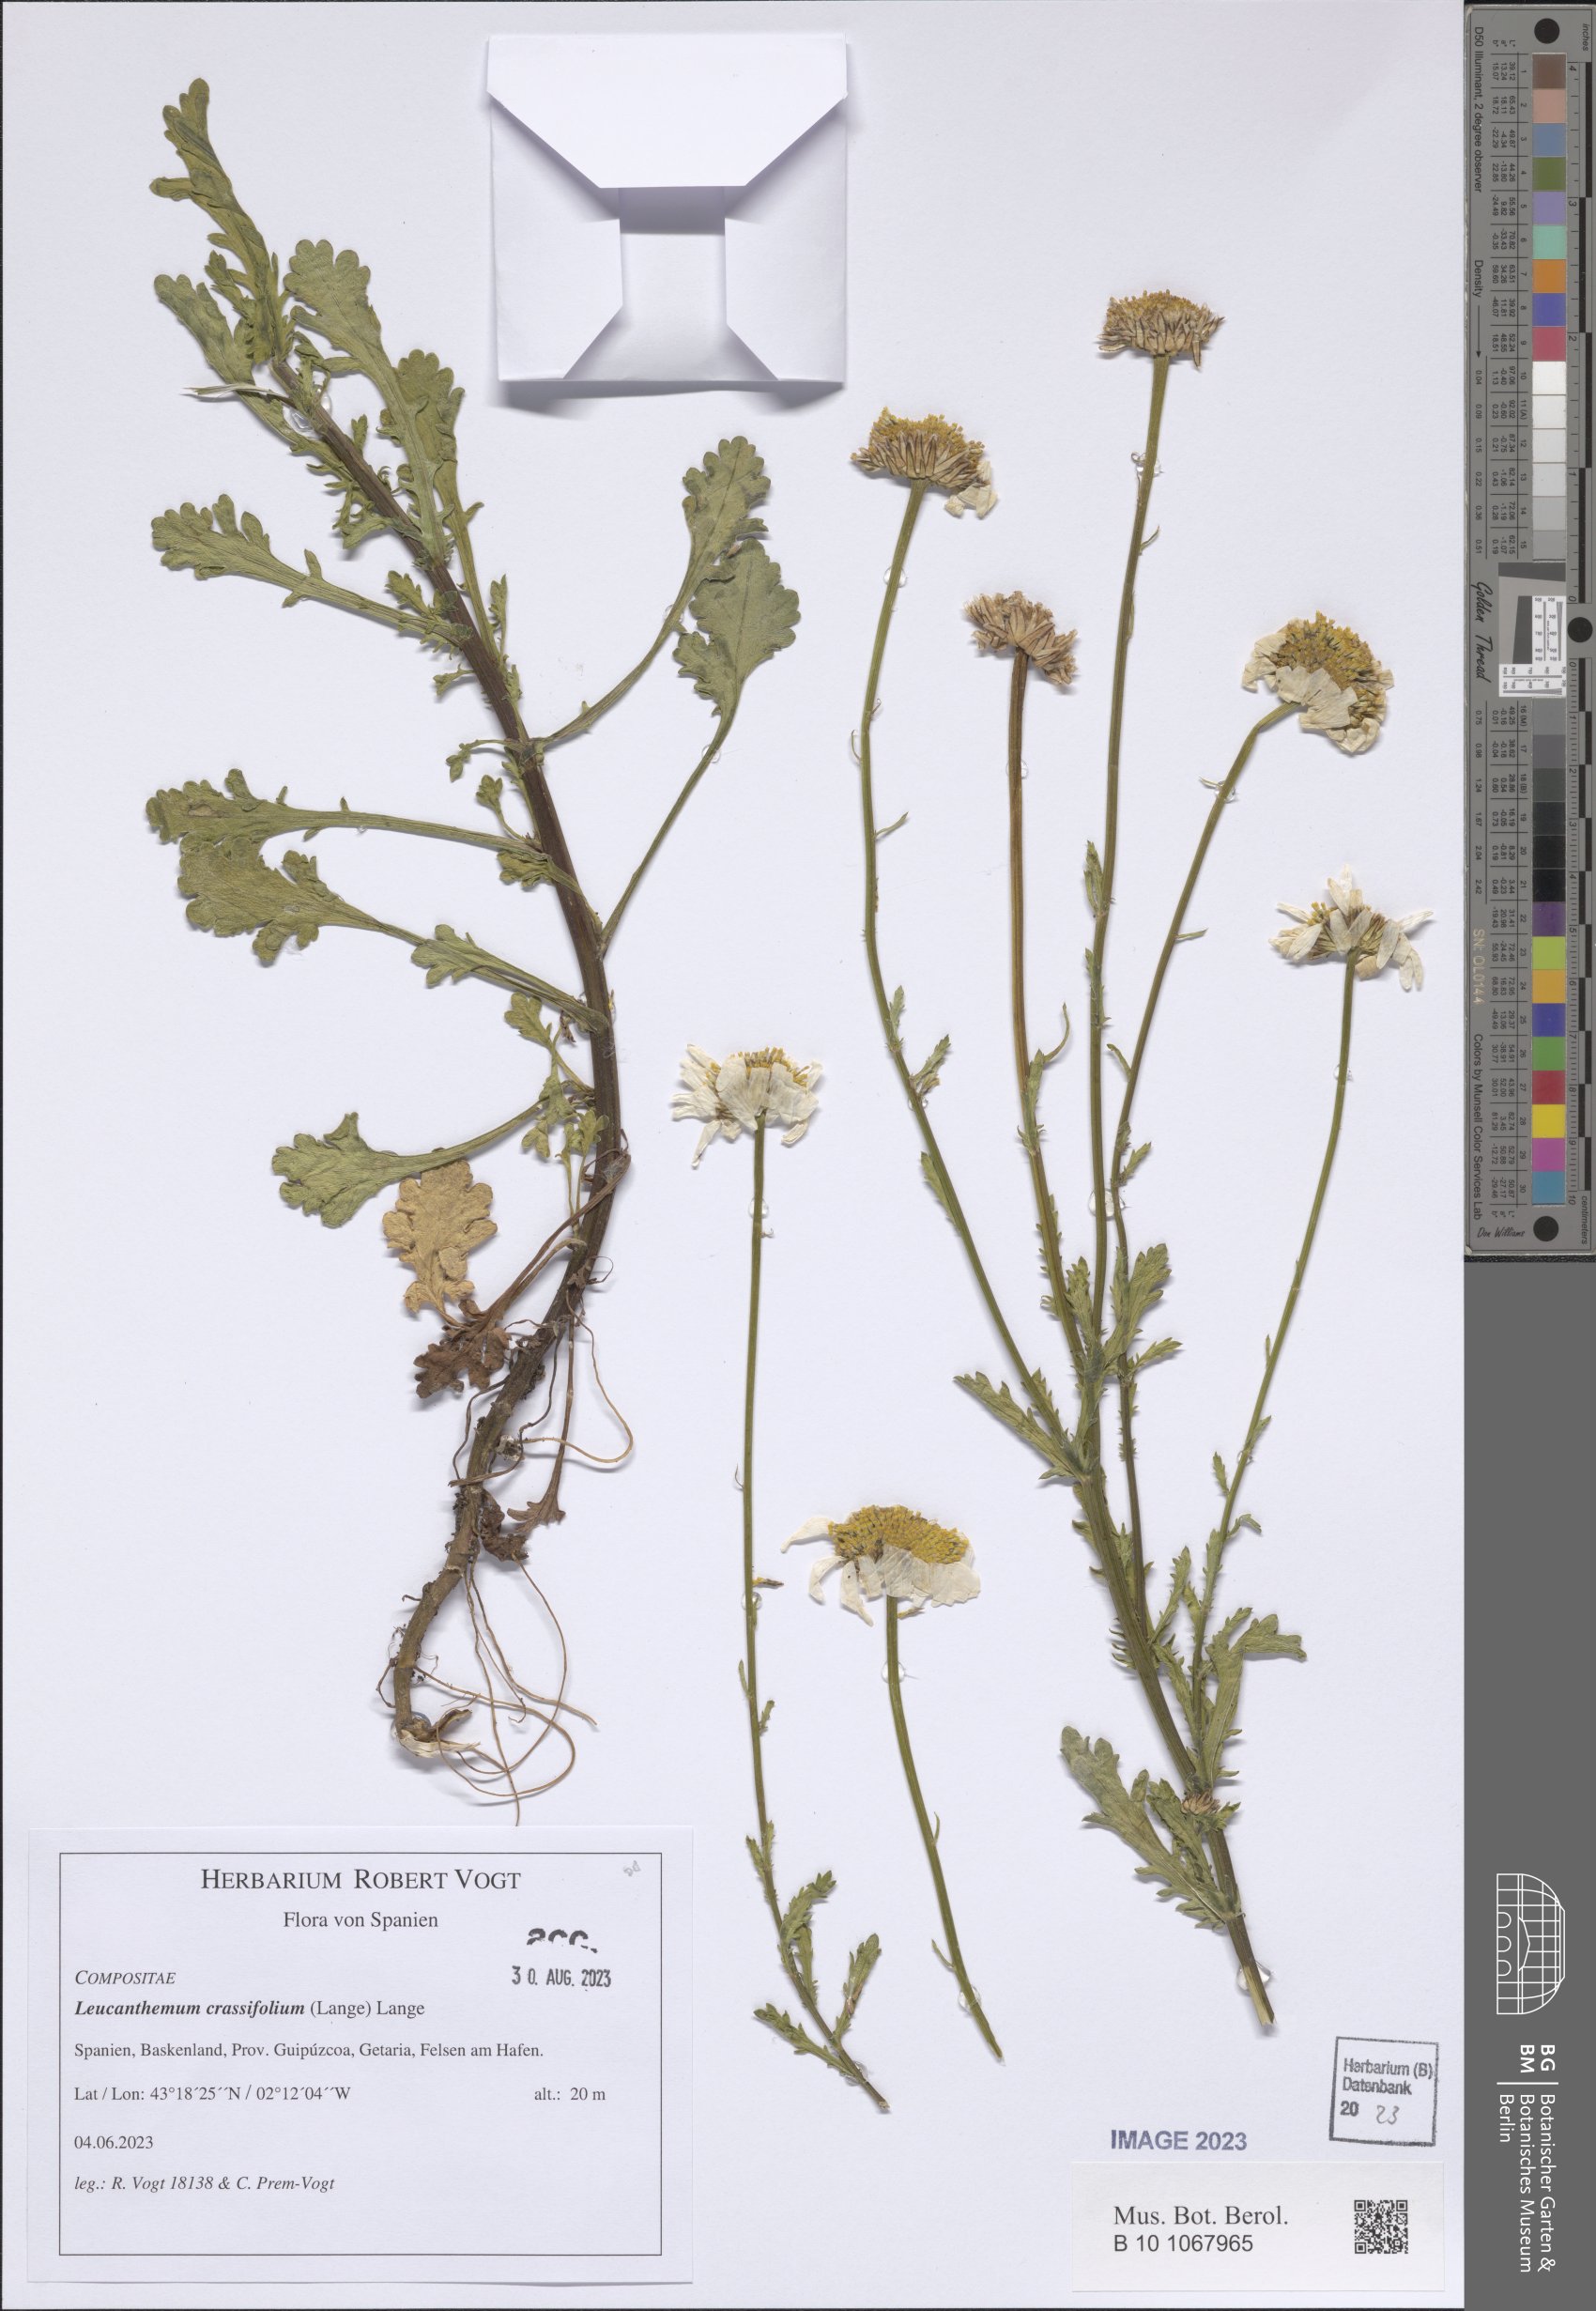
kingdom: Plantae
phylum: Tracheophyta
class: Magnoliopsida
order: Asterales
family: Asteraceae
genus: Leucanthemum
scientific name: Leucanthemum crassifolium
